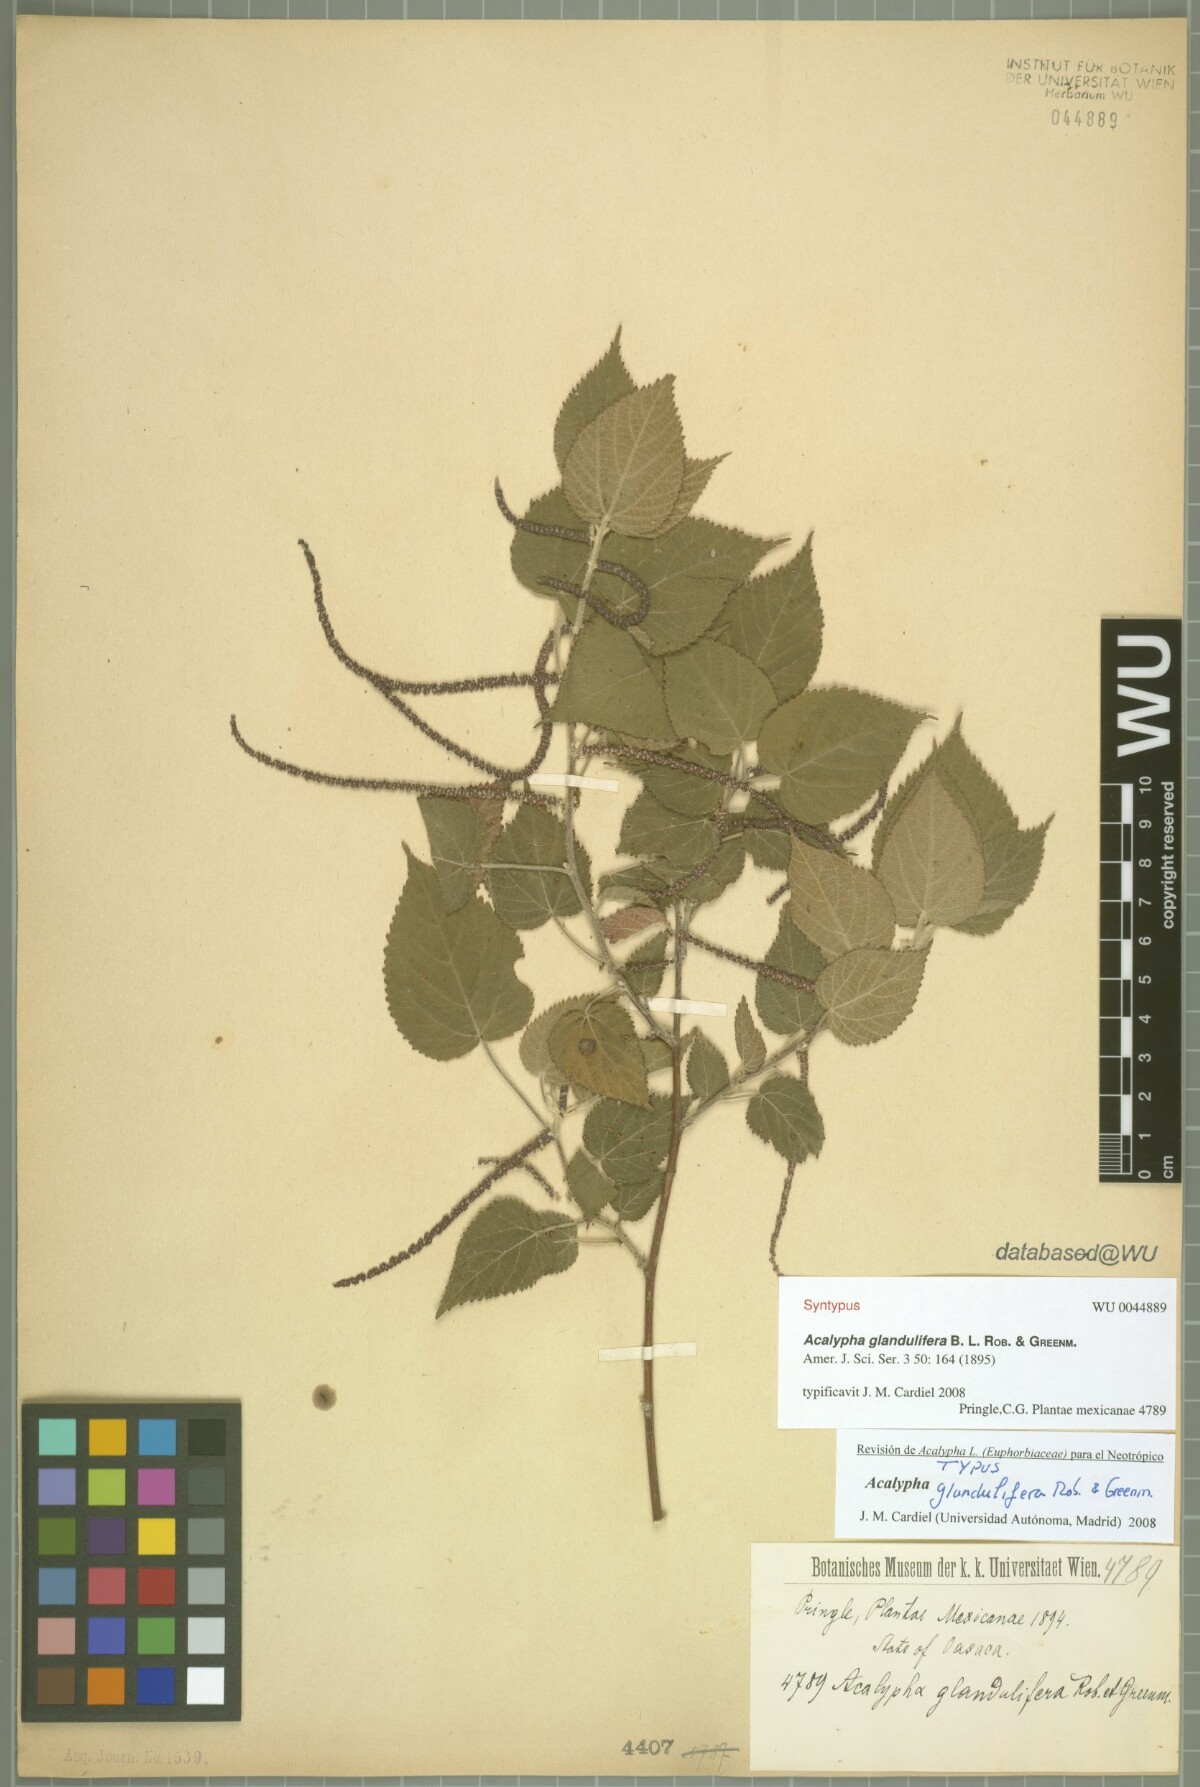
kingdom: Plantae
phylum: Tracheophyta
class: Magnoliopsida
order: Malpighiales
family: Euphorbiaceae
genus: Acalypha
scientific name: Acalypha trachyloba
